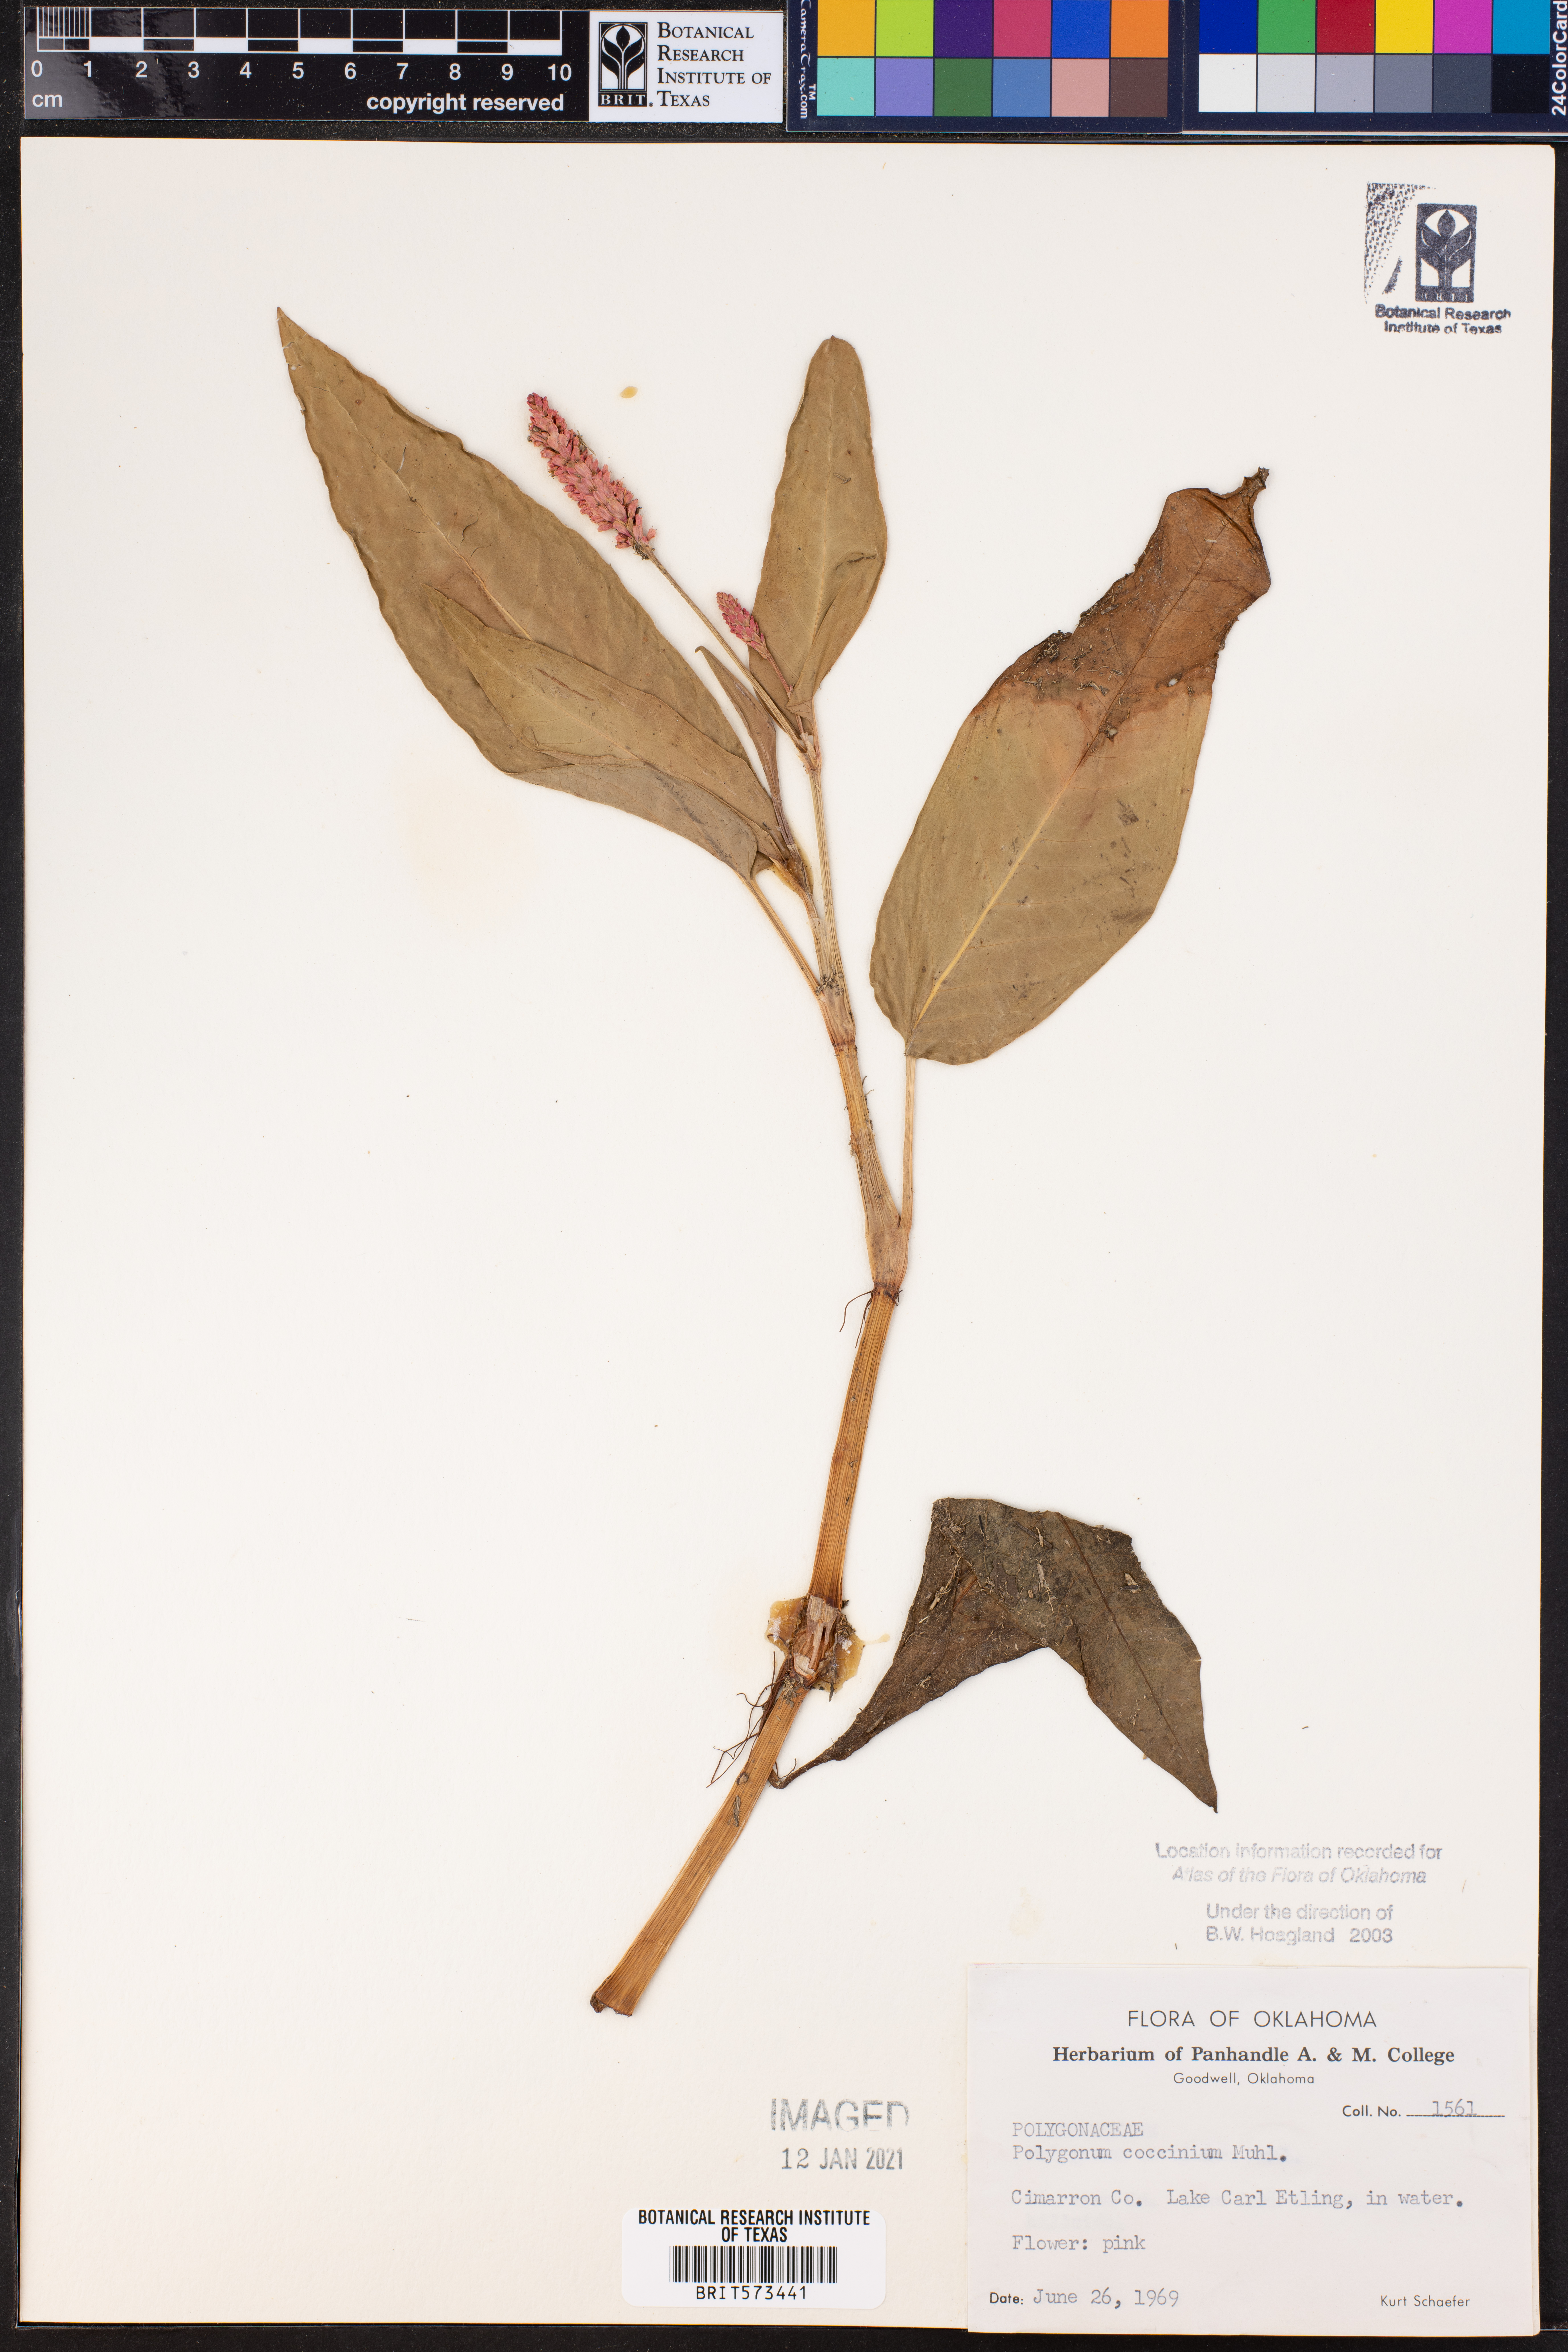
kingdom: Plantae
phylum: Tracheophyta
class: Magnoliopsida
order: Caryophyllales
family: Polygonaceae
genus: Persicaria
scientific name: Persicaria amphibia
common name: Amphibious bistort
